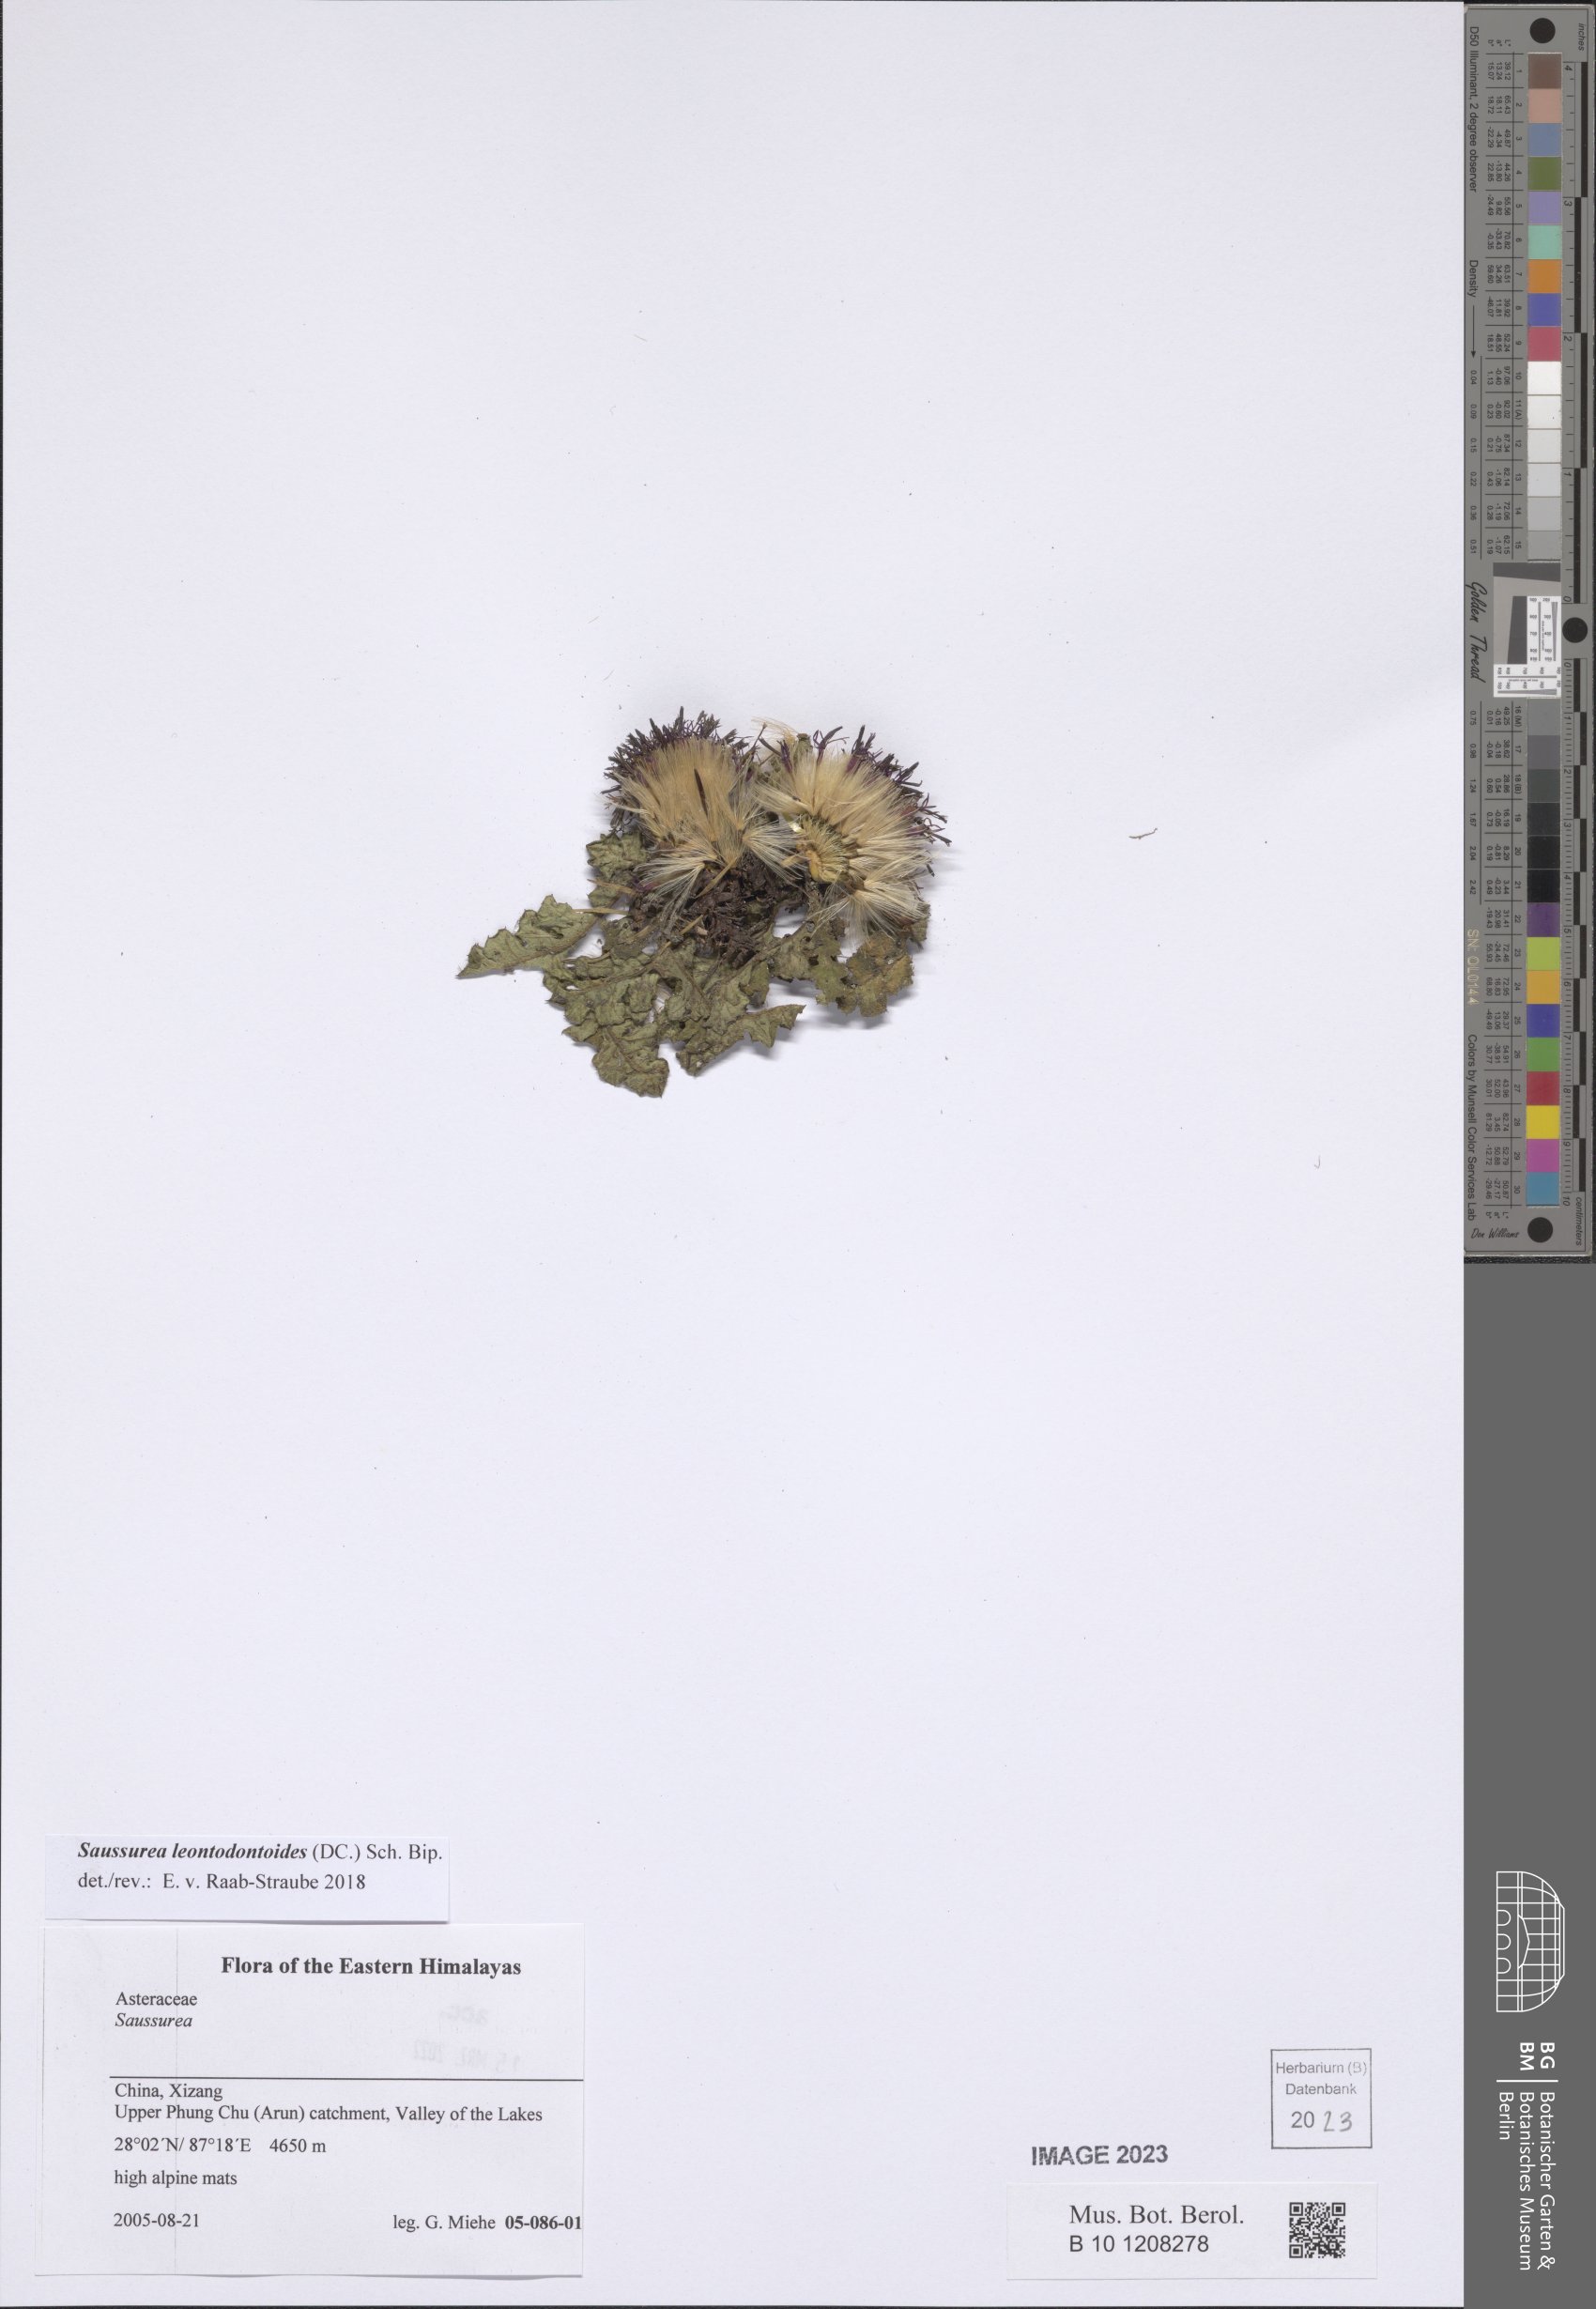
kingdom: Plantae
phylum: Tracheophyta
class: Magnoliopsida
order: Asterales
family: Asteraceae
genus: Saussurea
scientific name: Saussurea leontodontoides
